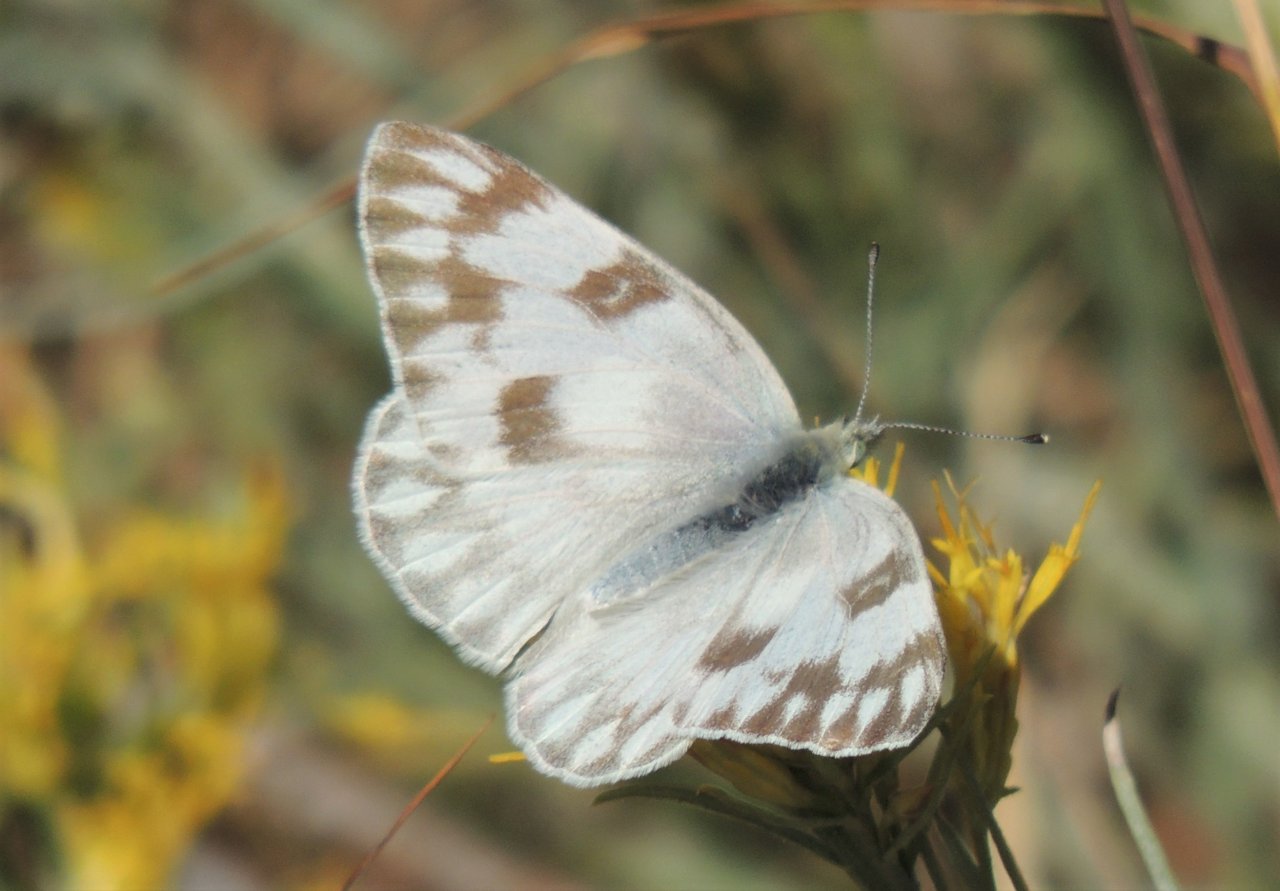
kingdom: Animalia
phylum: Arthropoda
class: Insecta
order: Lepidoptera
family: Pieridae
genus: Pontia
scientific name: Pontia protodice
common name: Checkered White
